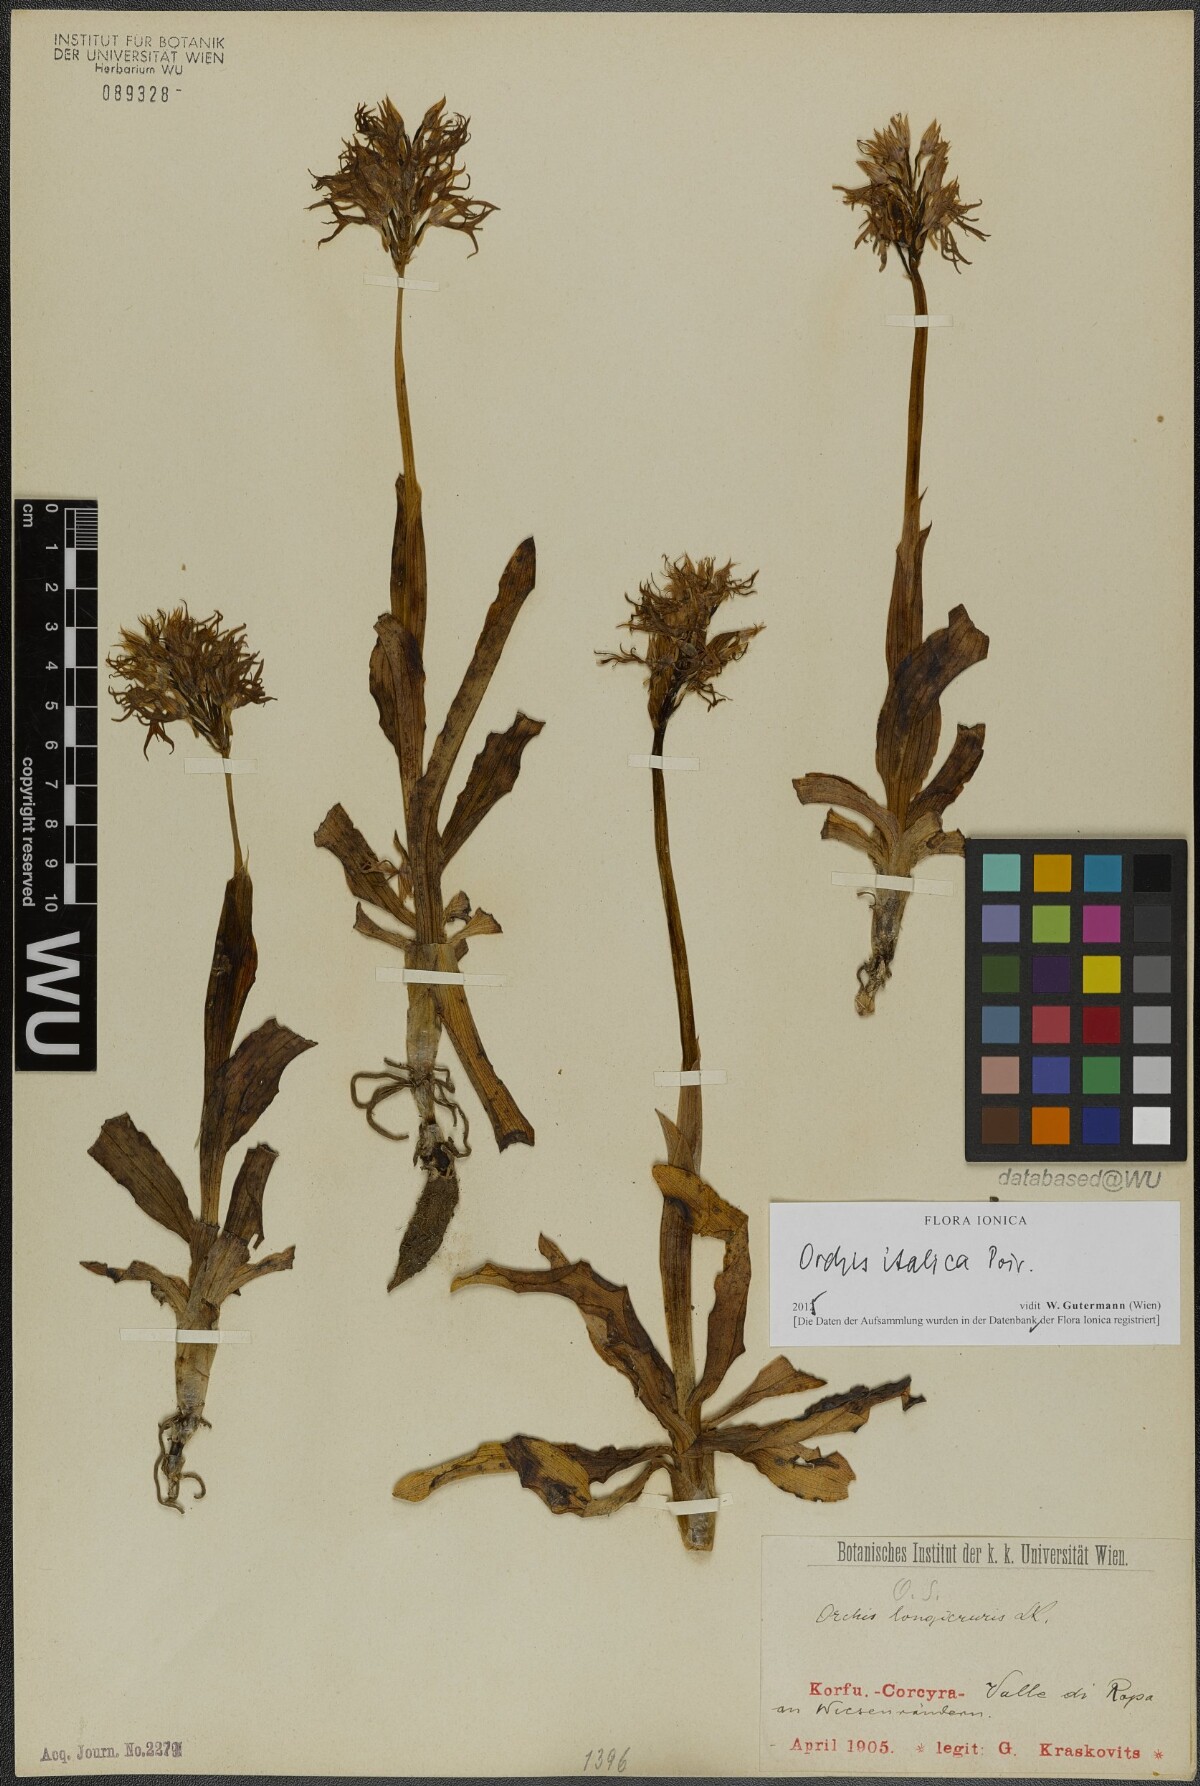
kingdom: Plantae
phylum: Tracheophyta
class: Liliopsida
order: Asparagales
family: Orchidaceae
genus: Orchis
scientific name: Orchis italica
